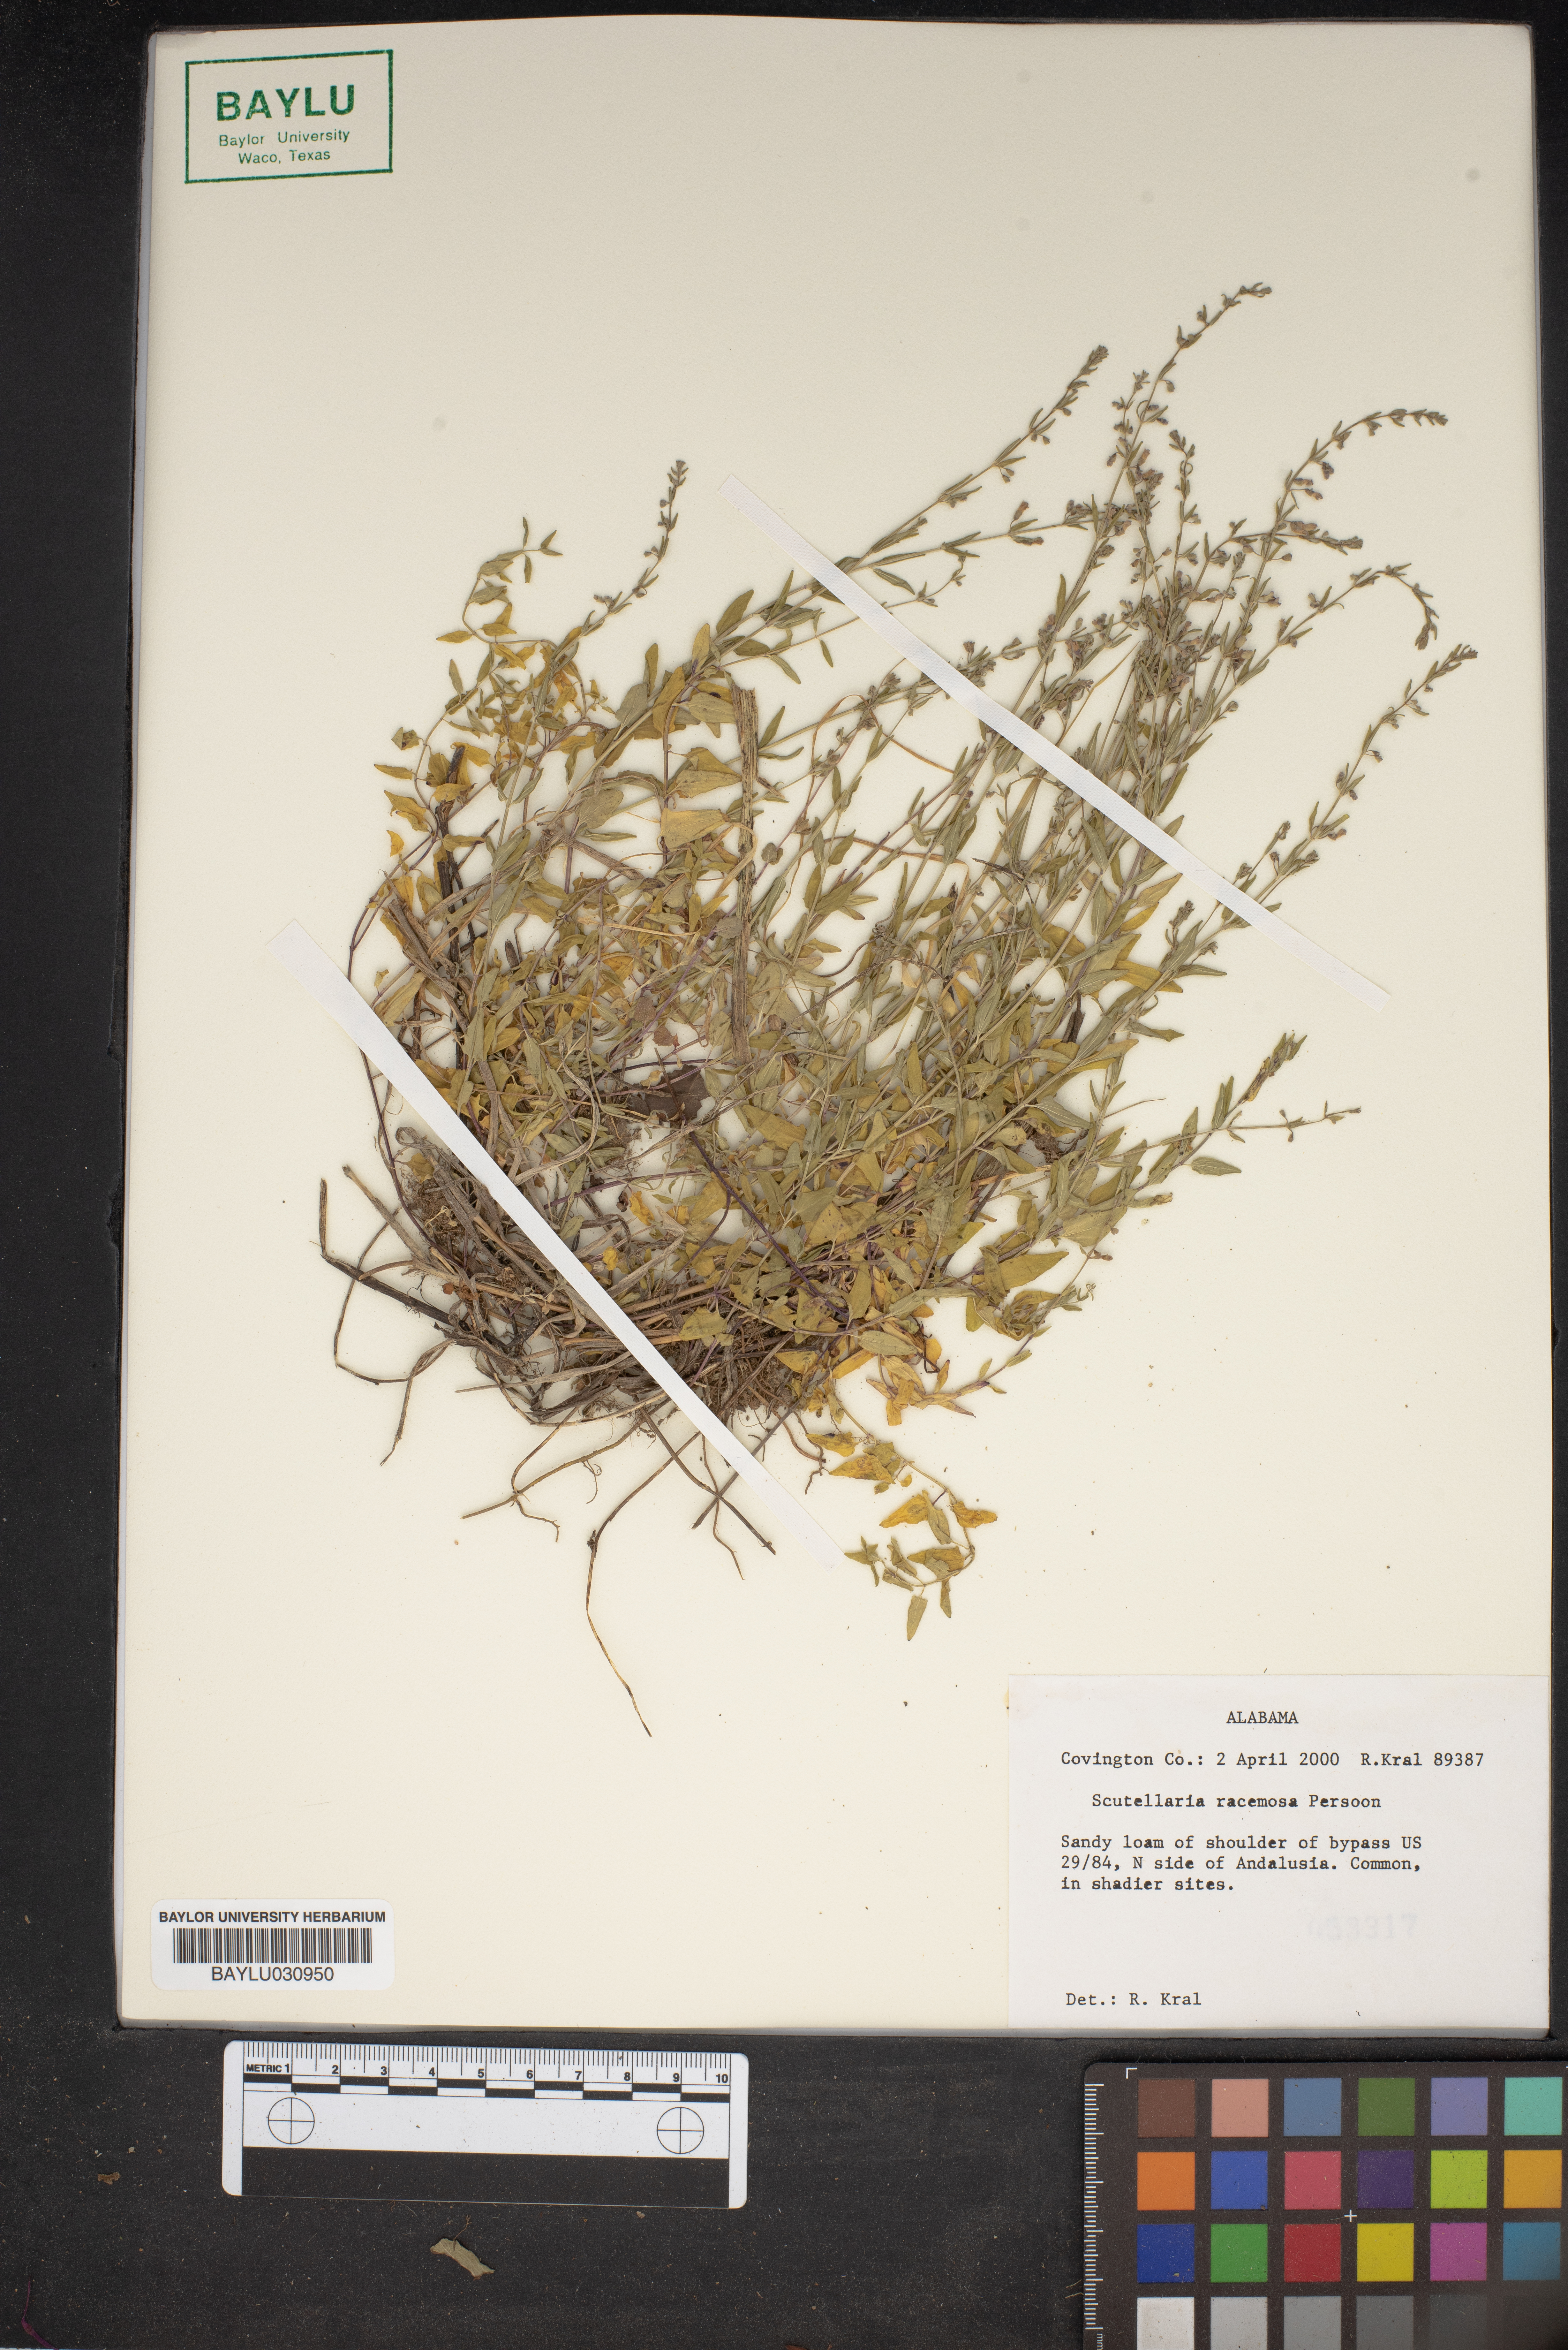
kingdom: Plantae
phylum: Tracheophyta
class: Magnoliopsida
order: Lamiales
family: Lamiaceae
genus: Scutellaria
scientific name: Scutellaria racemosa
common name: South american skullcap
